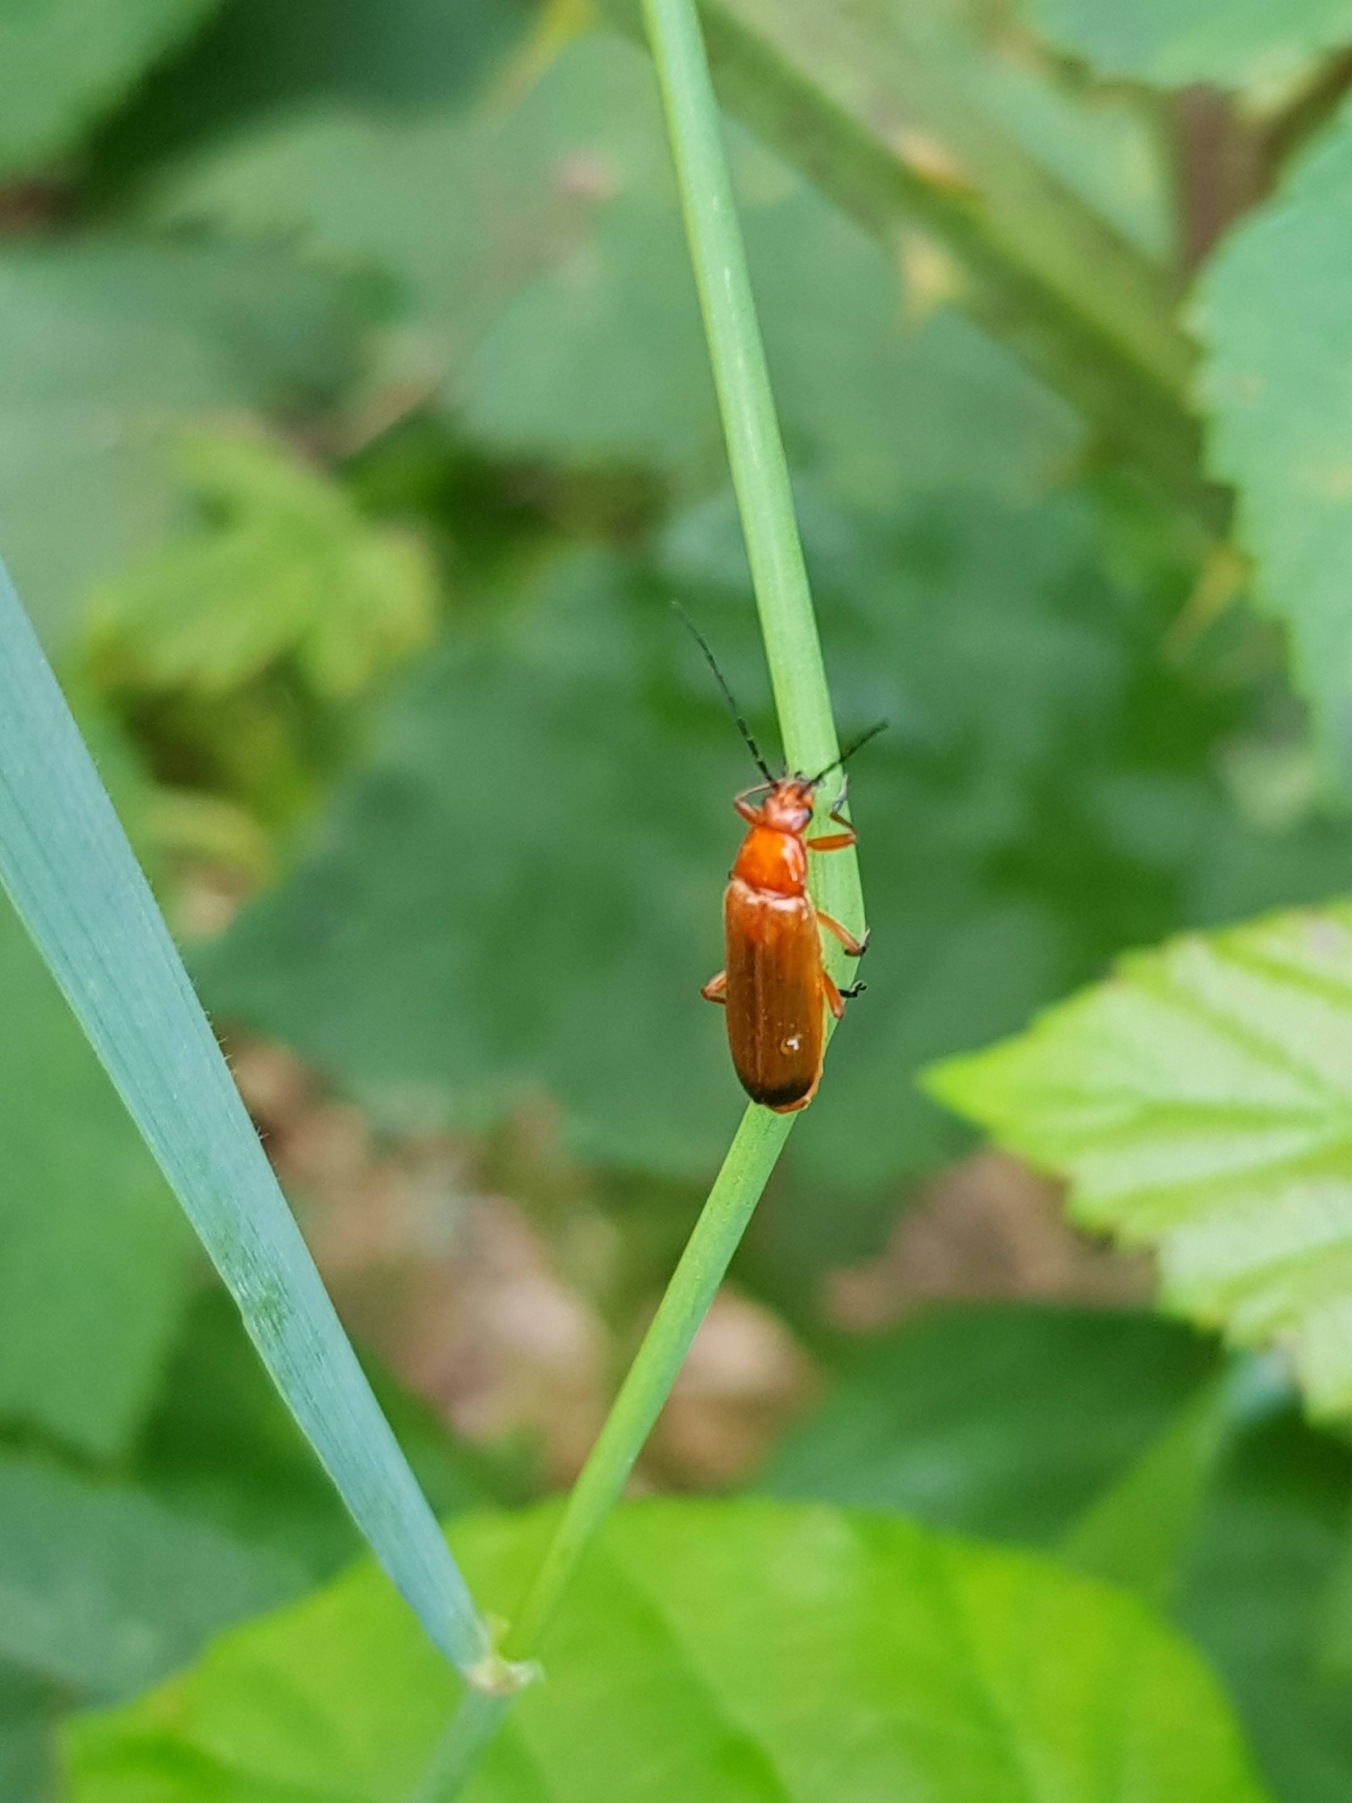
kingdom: Animalia
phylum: Arthropoda
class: Insecta
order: Coleoptera
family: Cantharidae
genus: Rhagonycha
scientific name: Rhagonycha fulva
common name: Præstebille
